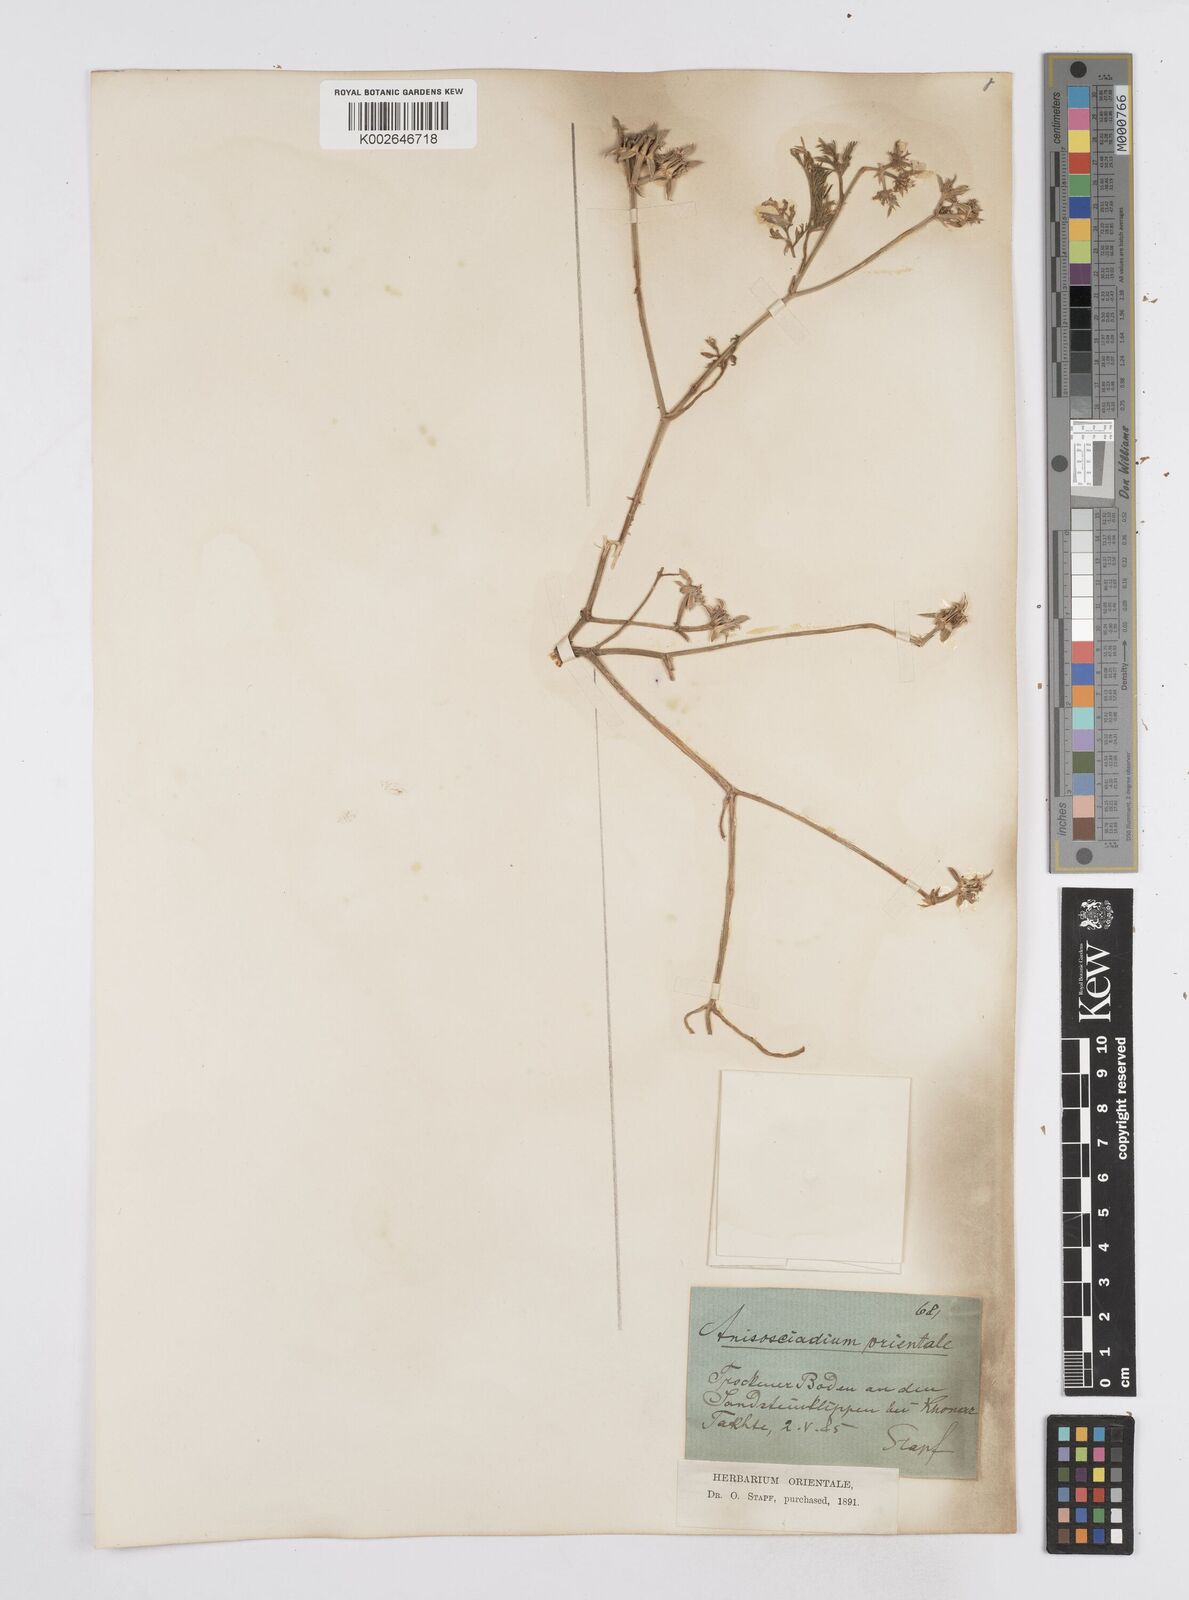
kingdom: Plantae
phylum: Tracheophyta
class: Magnoliopsida
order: Apiales
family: Apiaceae
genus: Anisosciadium
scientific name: Anisosciadium orientale
